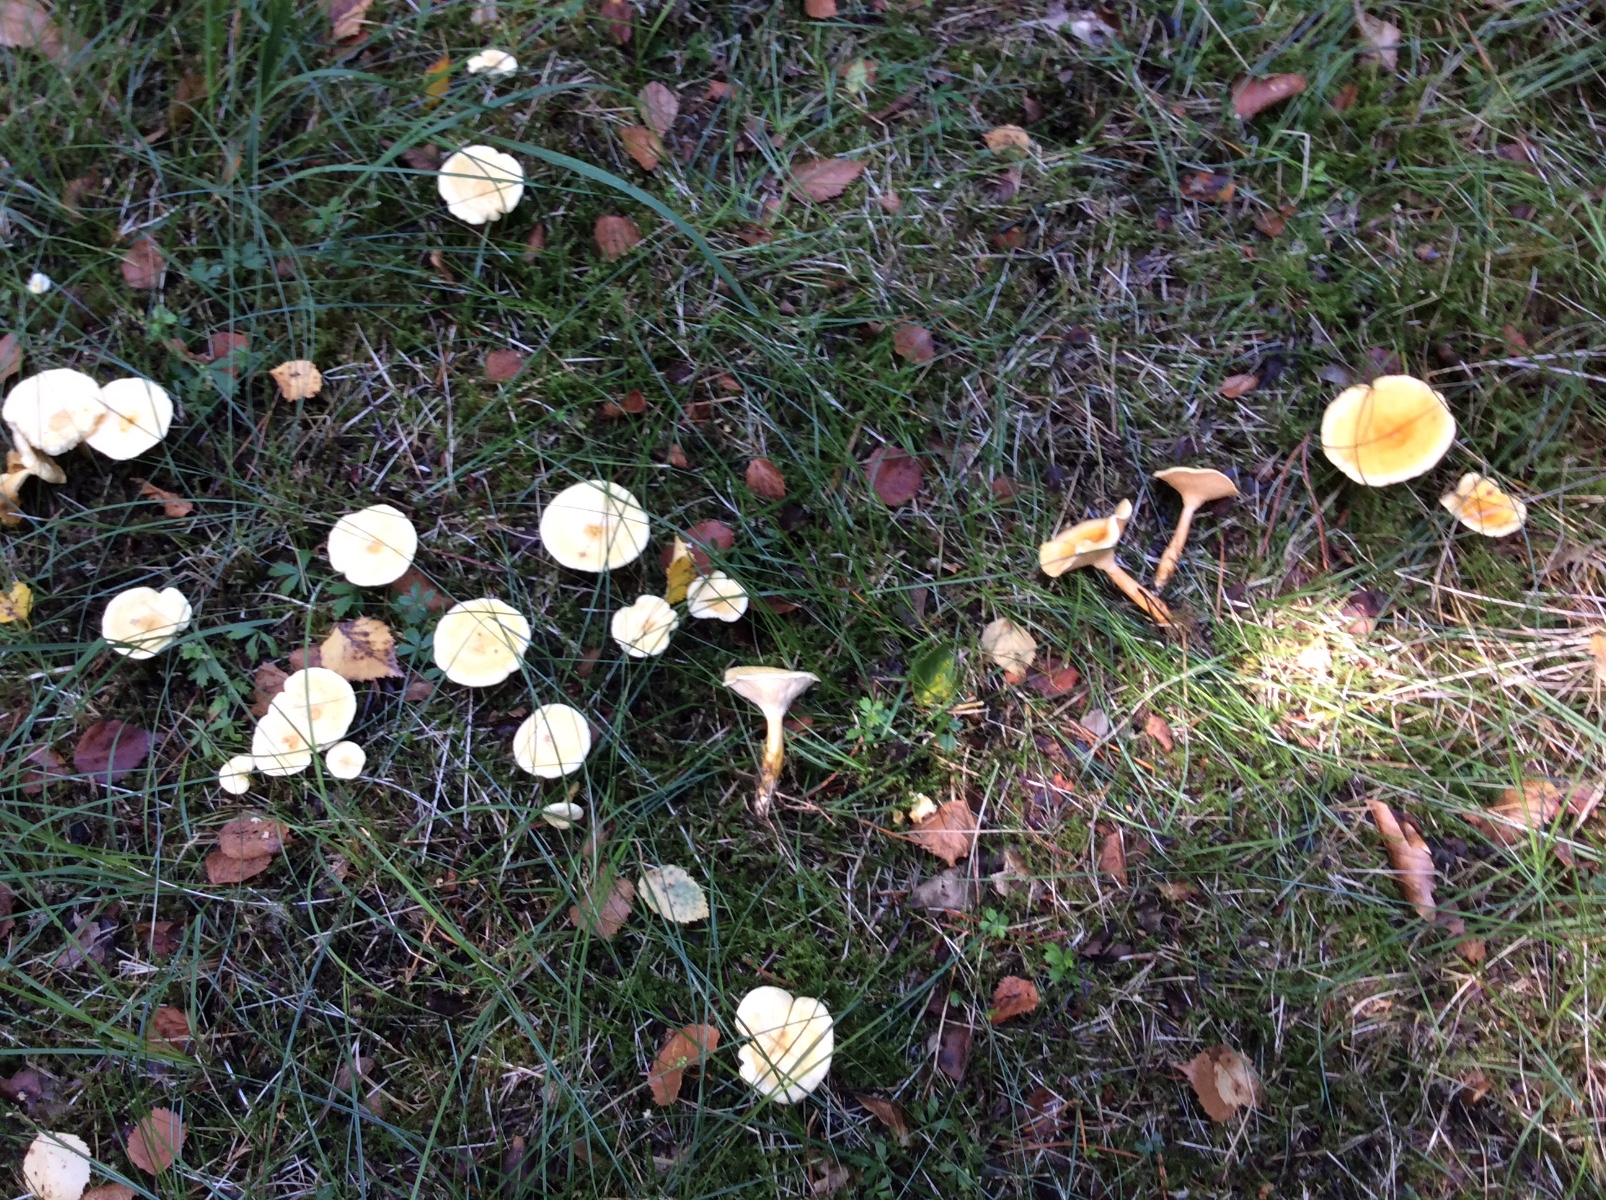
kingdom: Fungi
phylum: Basidiomycota
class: Agaricomycetes
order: Boletales
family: Hygrophoropsidaceae
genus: Hygrophoropsis
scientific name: Hygrophoropsis pallida
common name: bleg orangekantarel
